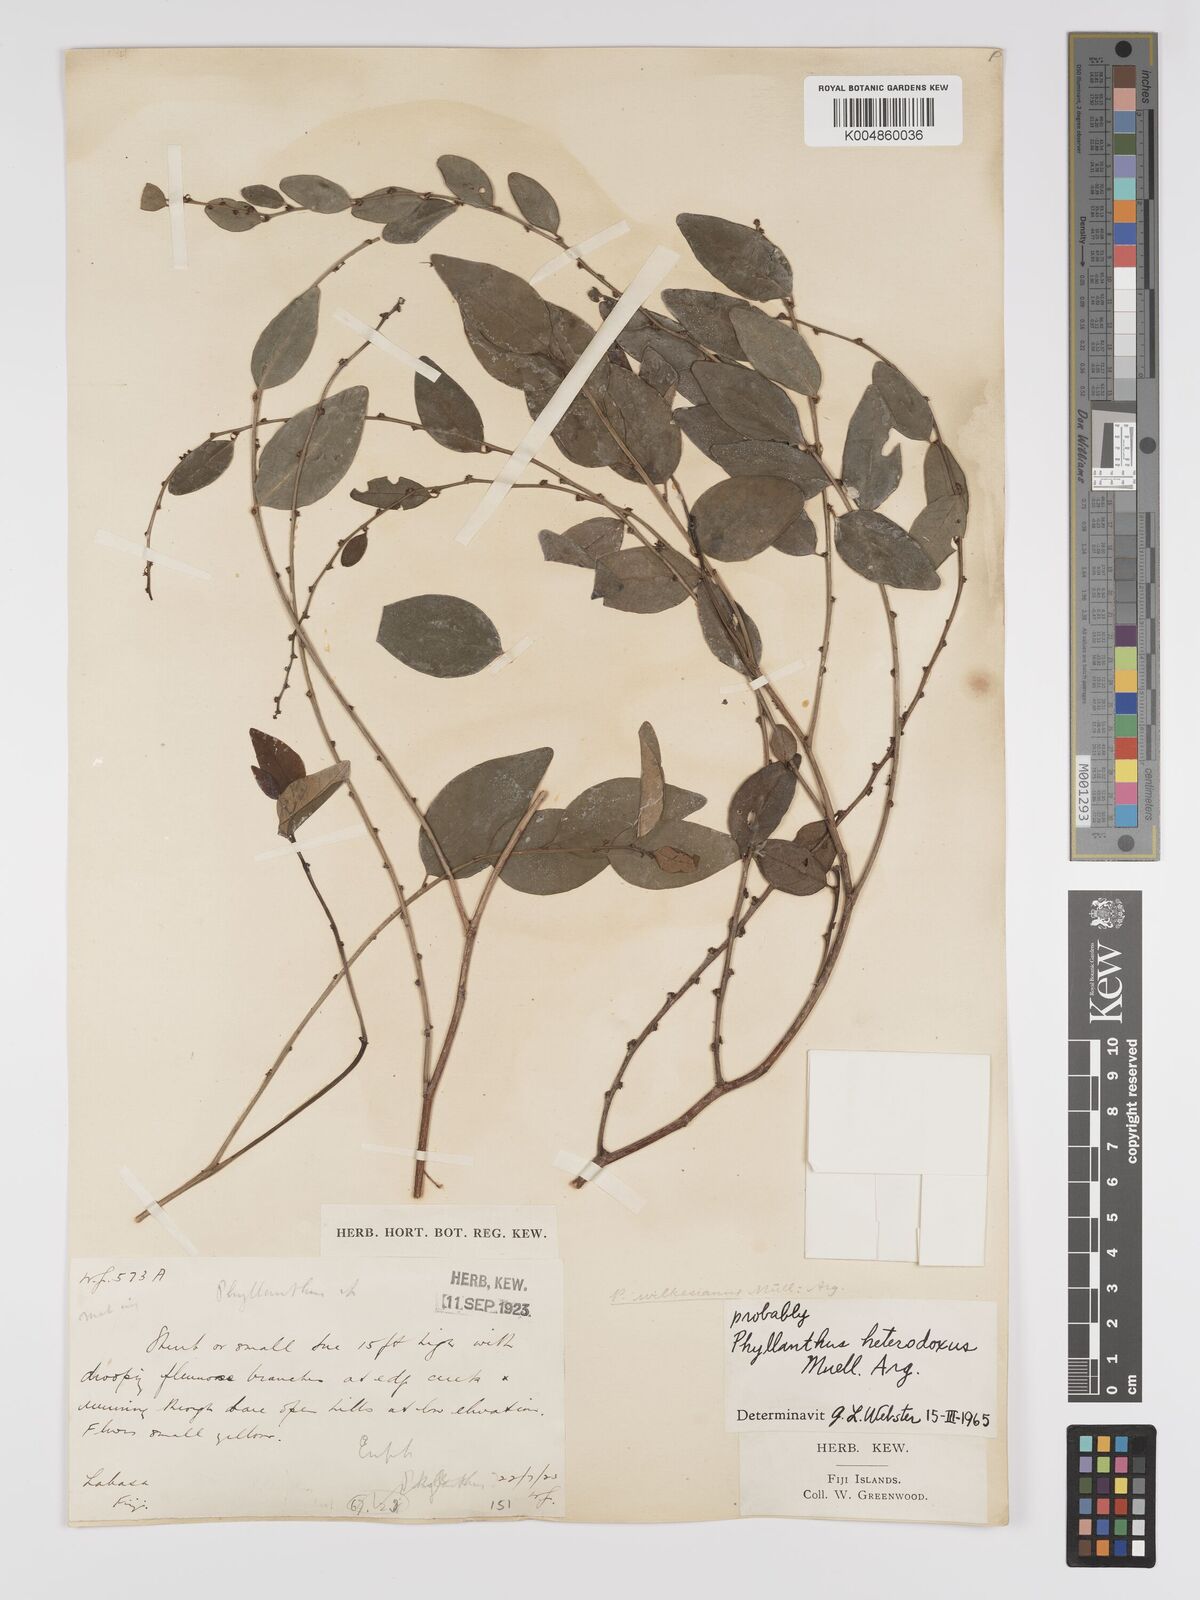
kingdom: Plantae
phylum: Tracheophyta
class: Magnoliopsida
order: Malpighiales
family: Phyllanthaceae
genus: Glochidion
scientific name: Glochidion heterodoxum
